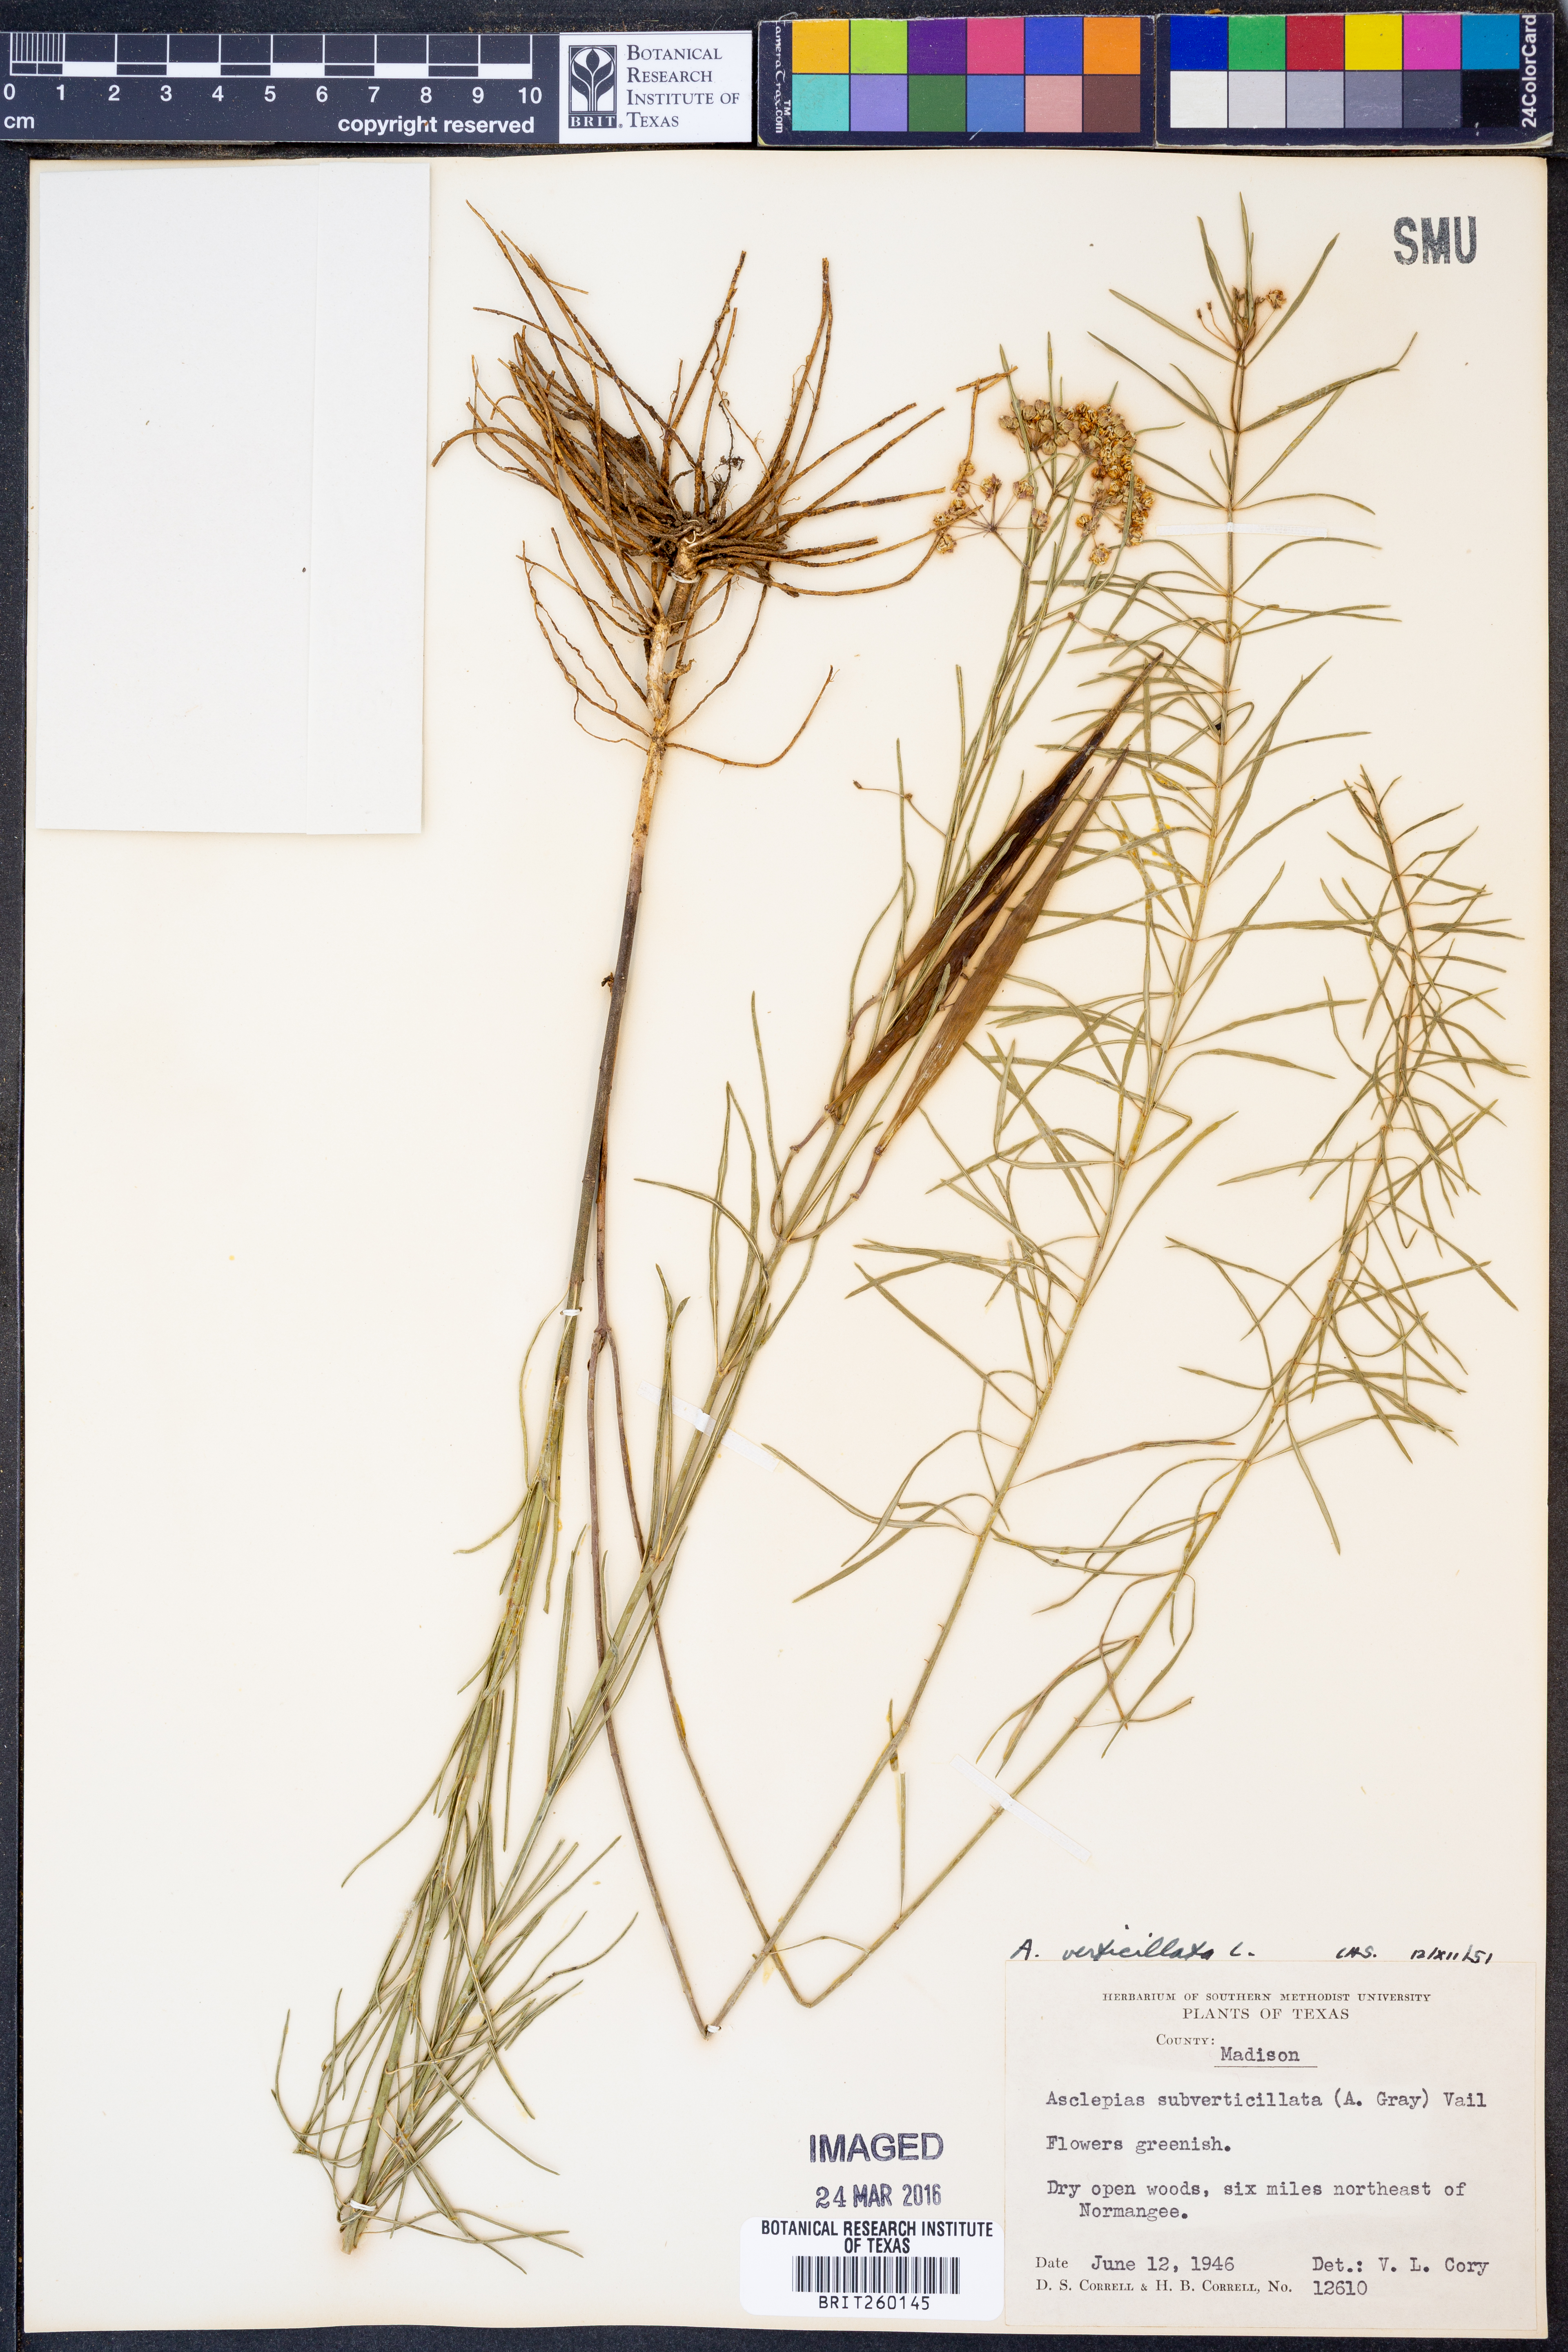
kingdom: Plantae
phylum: Tracheophyta
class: Magnoliopsida
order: Gentianales
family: Apocynaceae
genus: Asclepias
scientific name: Asclepias verticillata
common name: Eastern whorled milkweed
